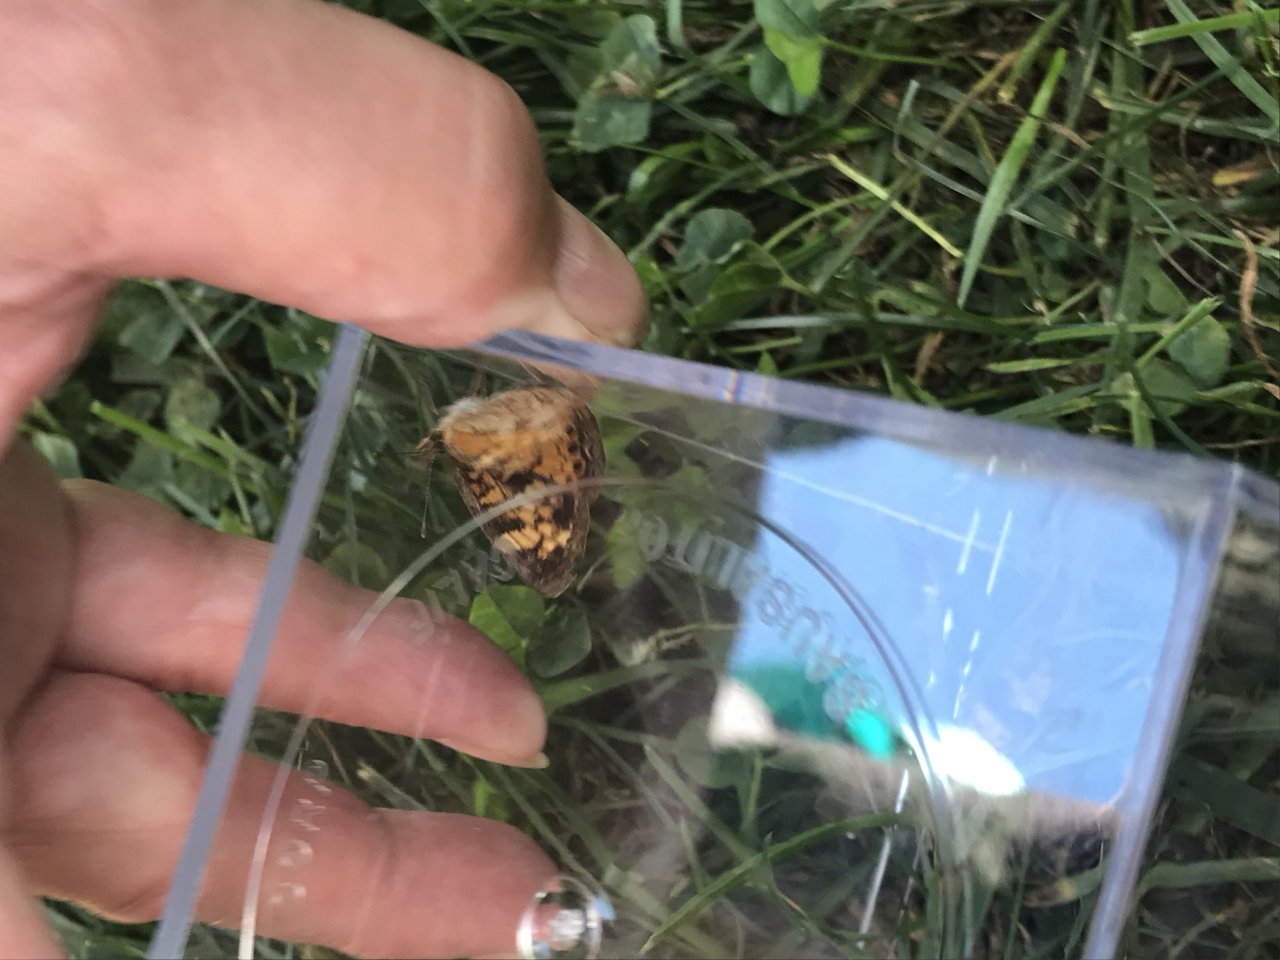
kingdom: Animalia
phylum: Arthropoda
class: Insecta
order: Lepidoptera
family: Nymphalidae
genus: Phyciodes
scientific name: Phyciodes tharos
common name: Pearl Crescent
